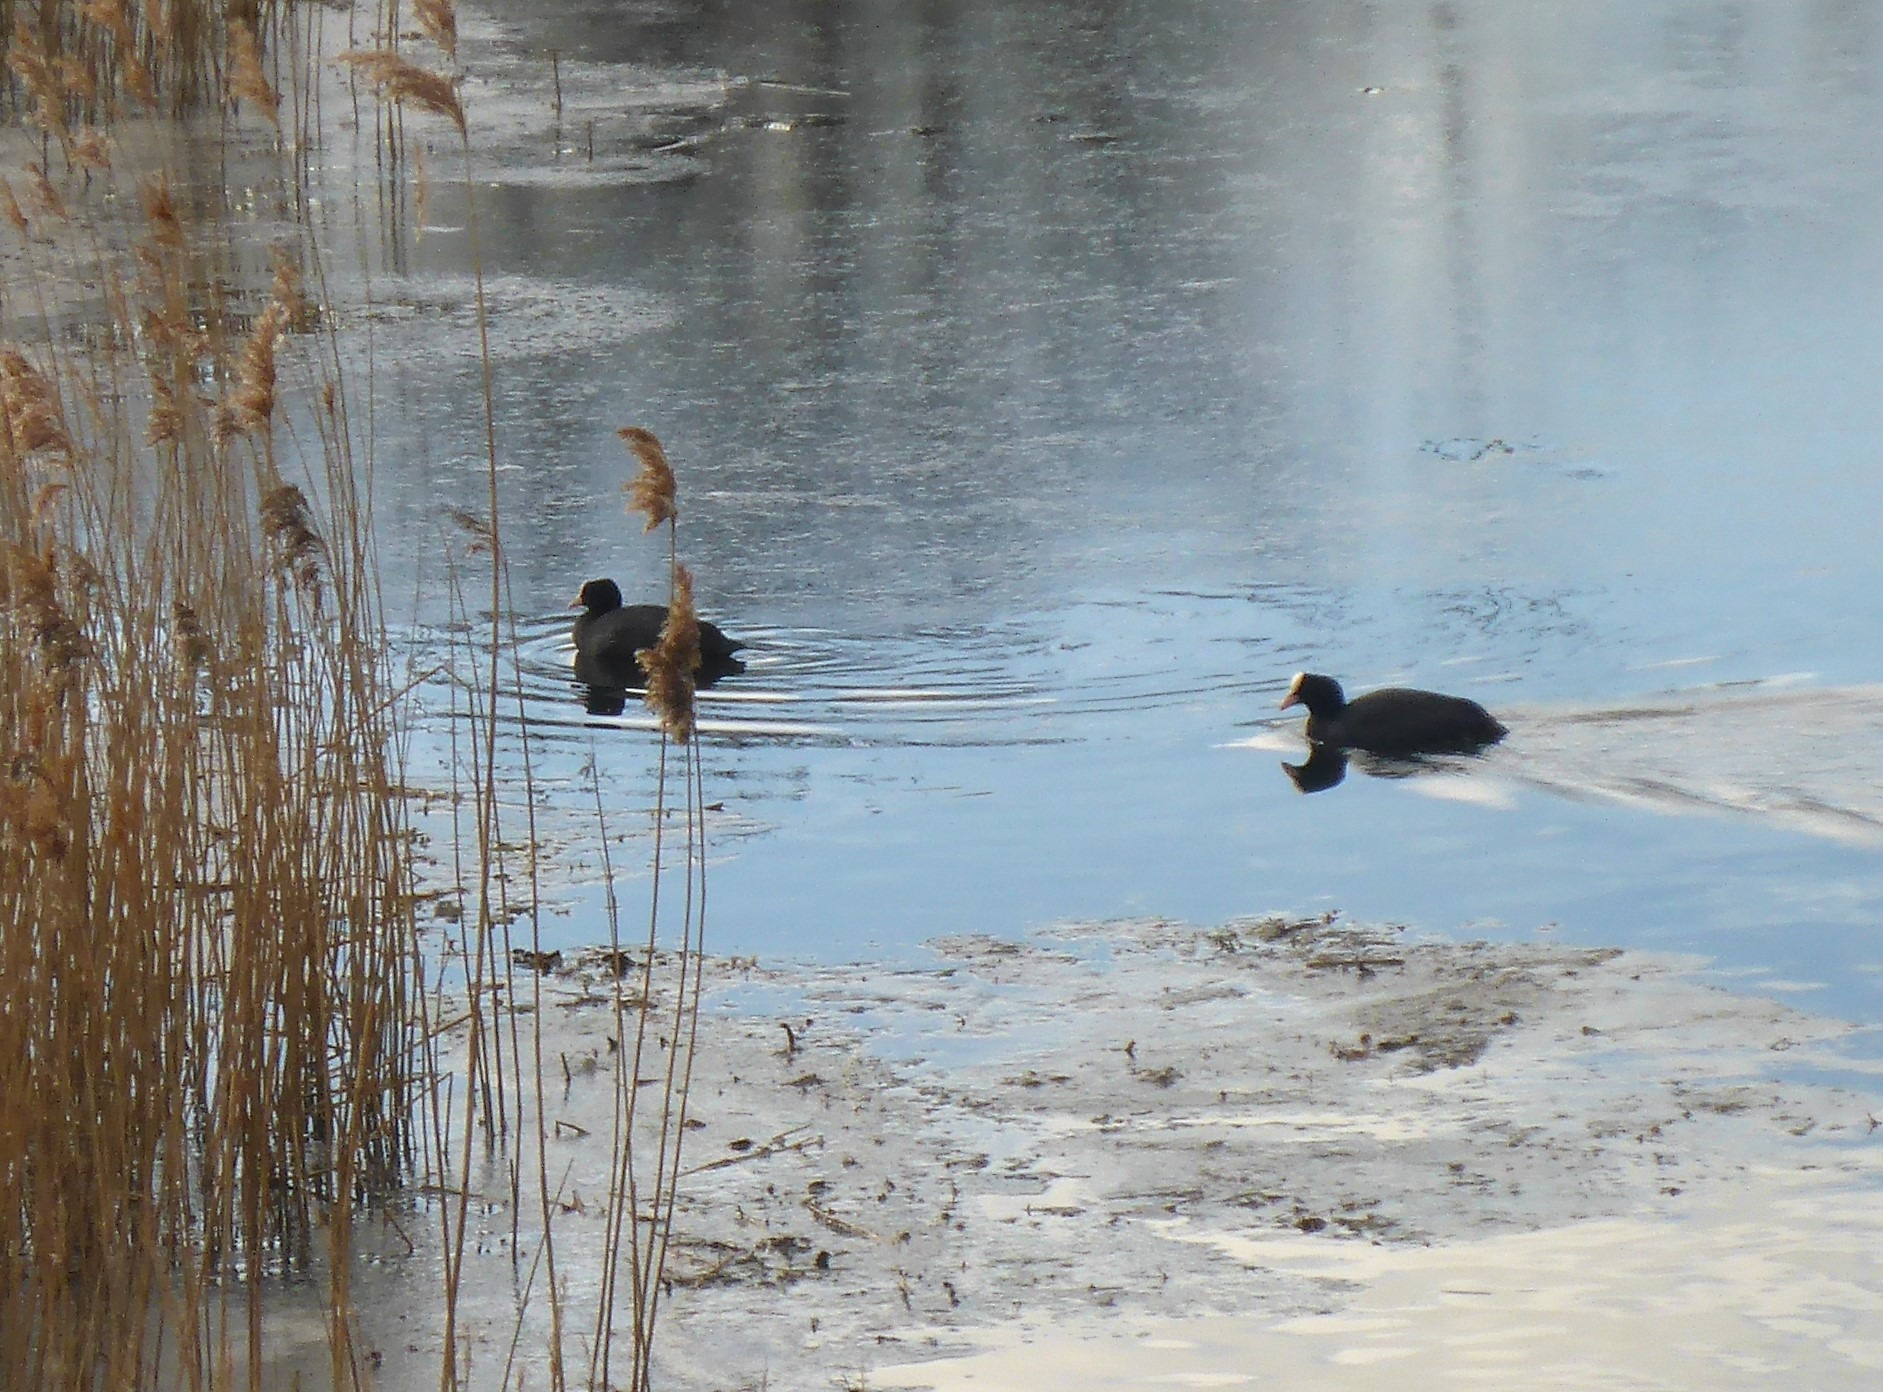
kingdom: Animalia
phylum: Chordata
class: Aves
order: Gruiformes
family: Rallidae
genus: Fulica
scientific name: Fulica atra
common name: Blishøne
